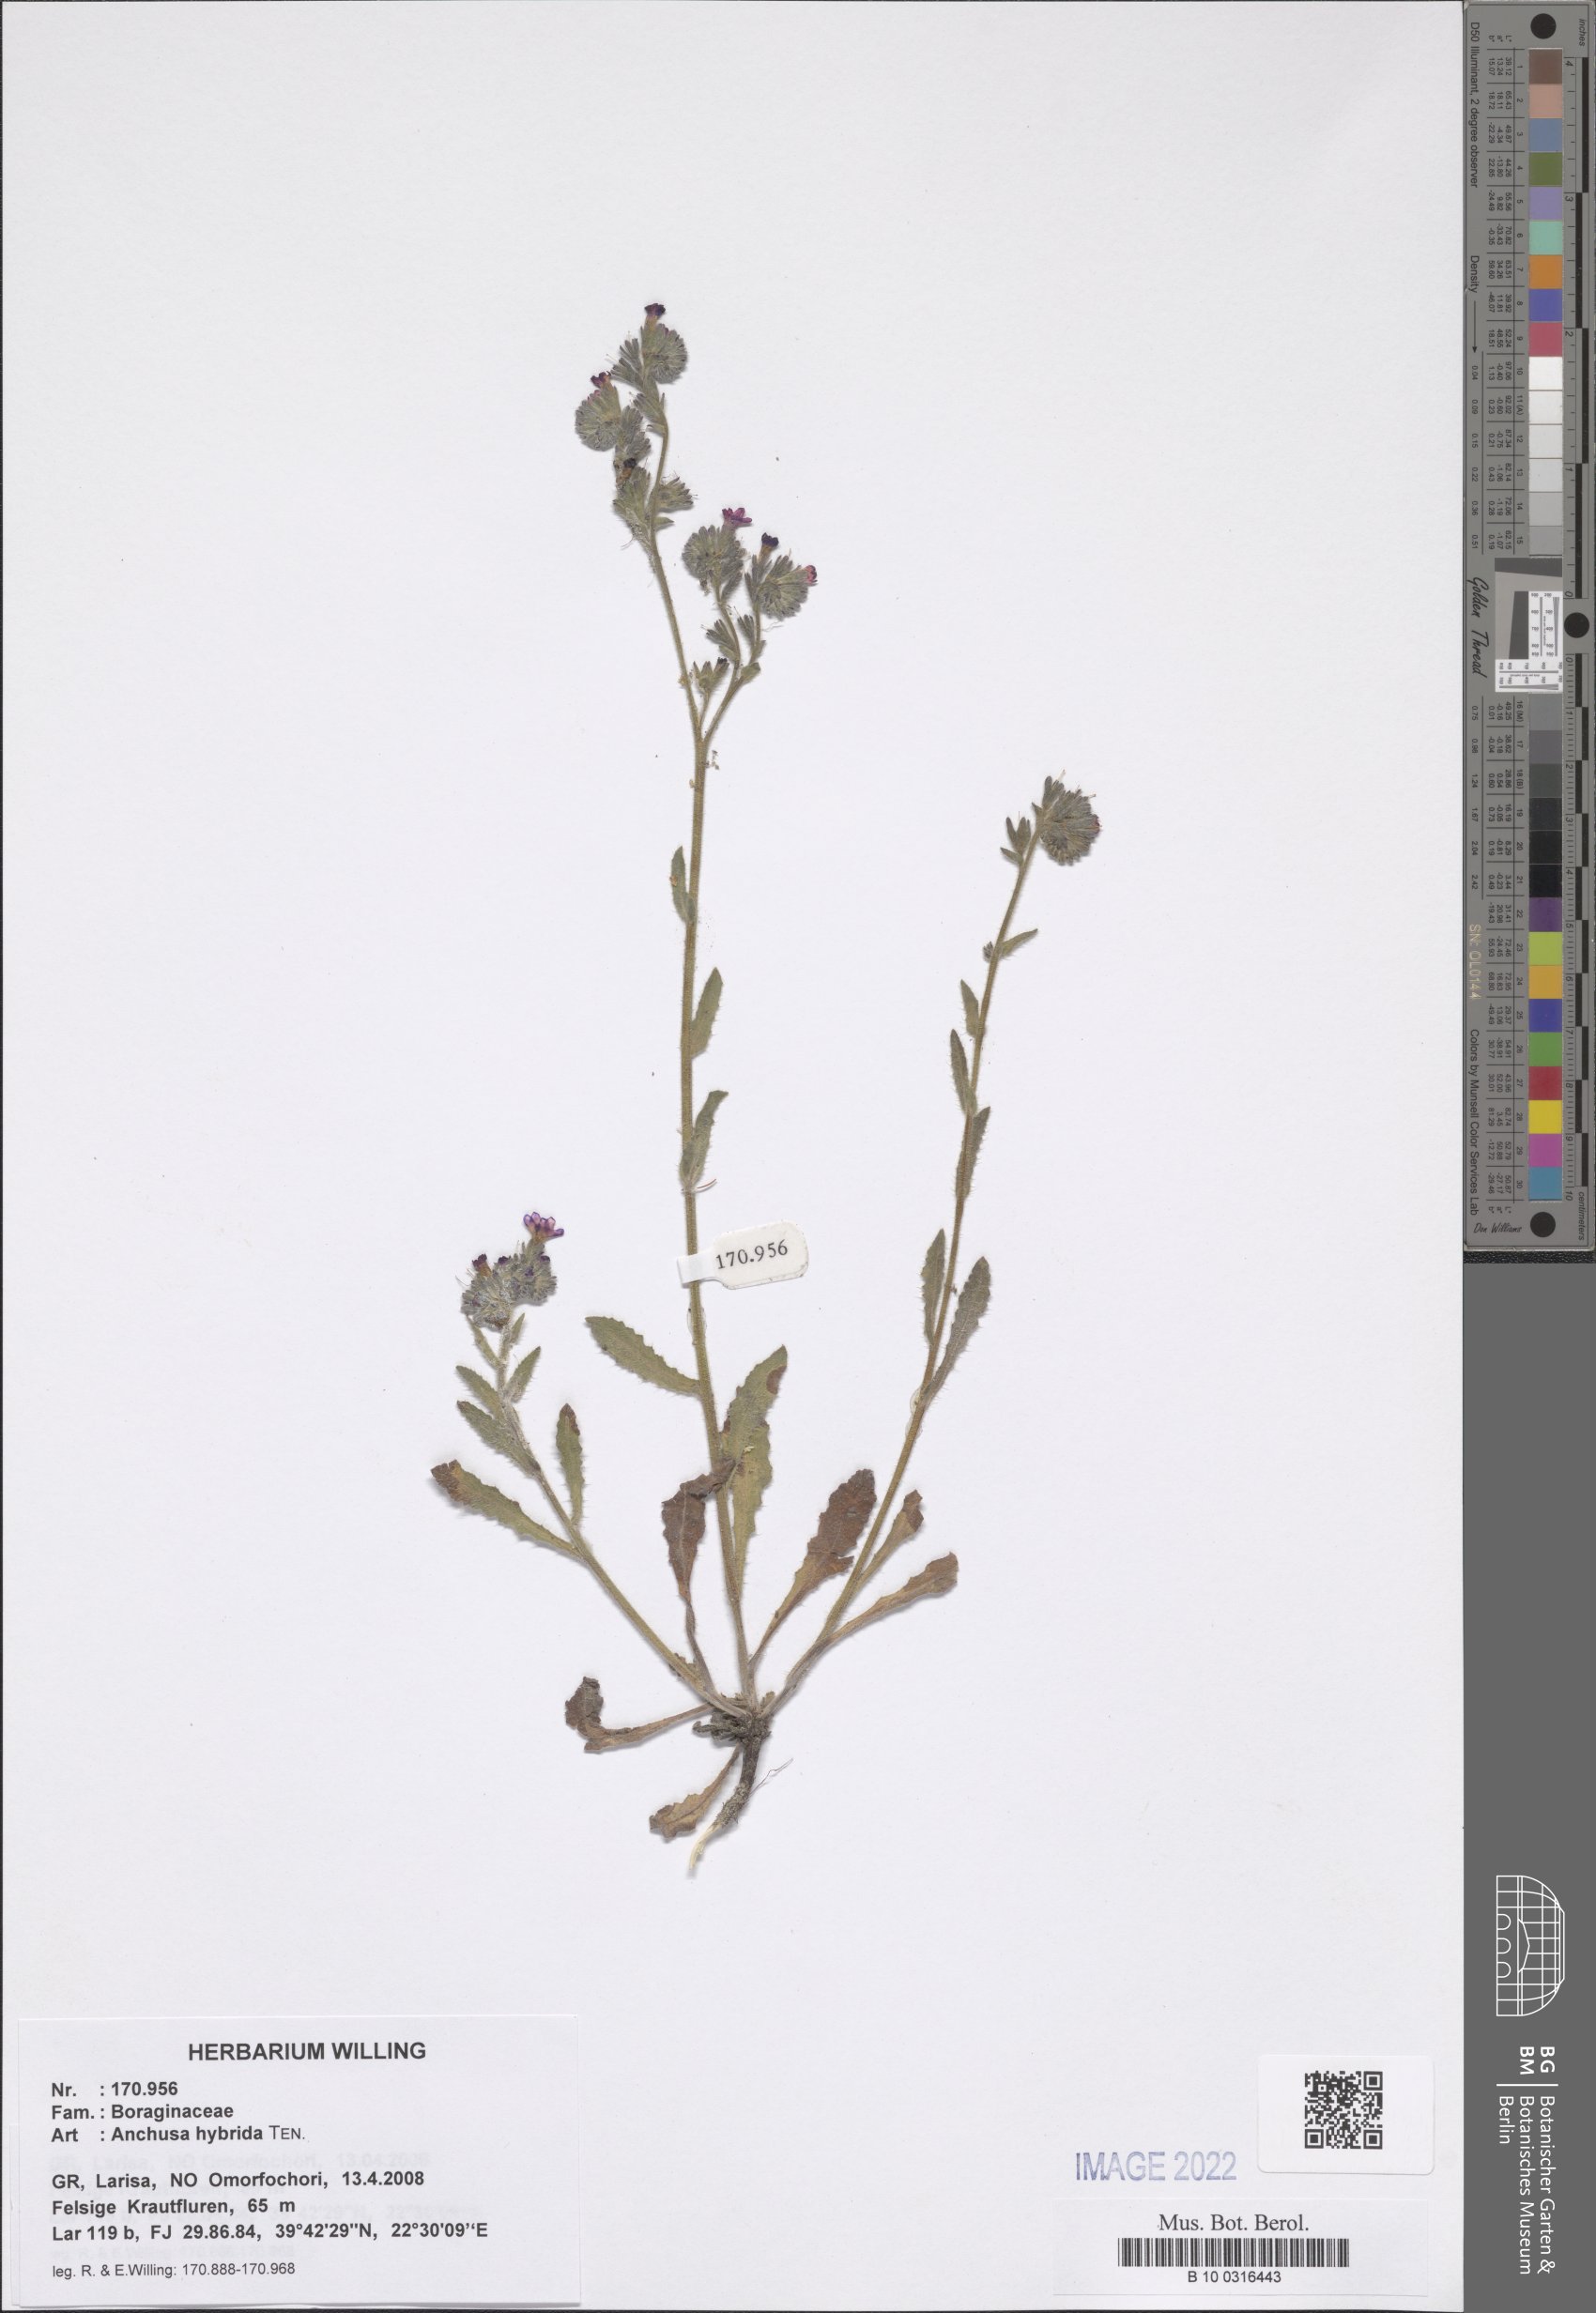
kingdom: Plantae
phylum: Tracheophyta
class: Magnoliopsida
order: Boraginales
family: Boraginaceae
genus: Anchusa
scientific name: Anchusa hybrida
